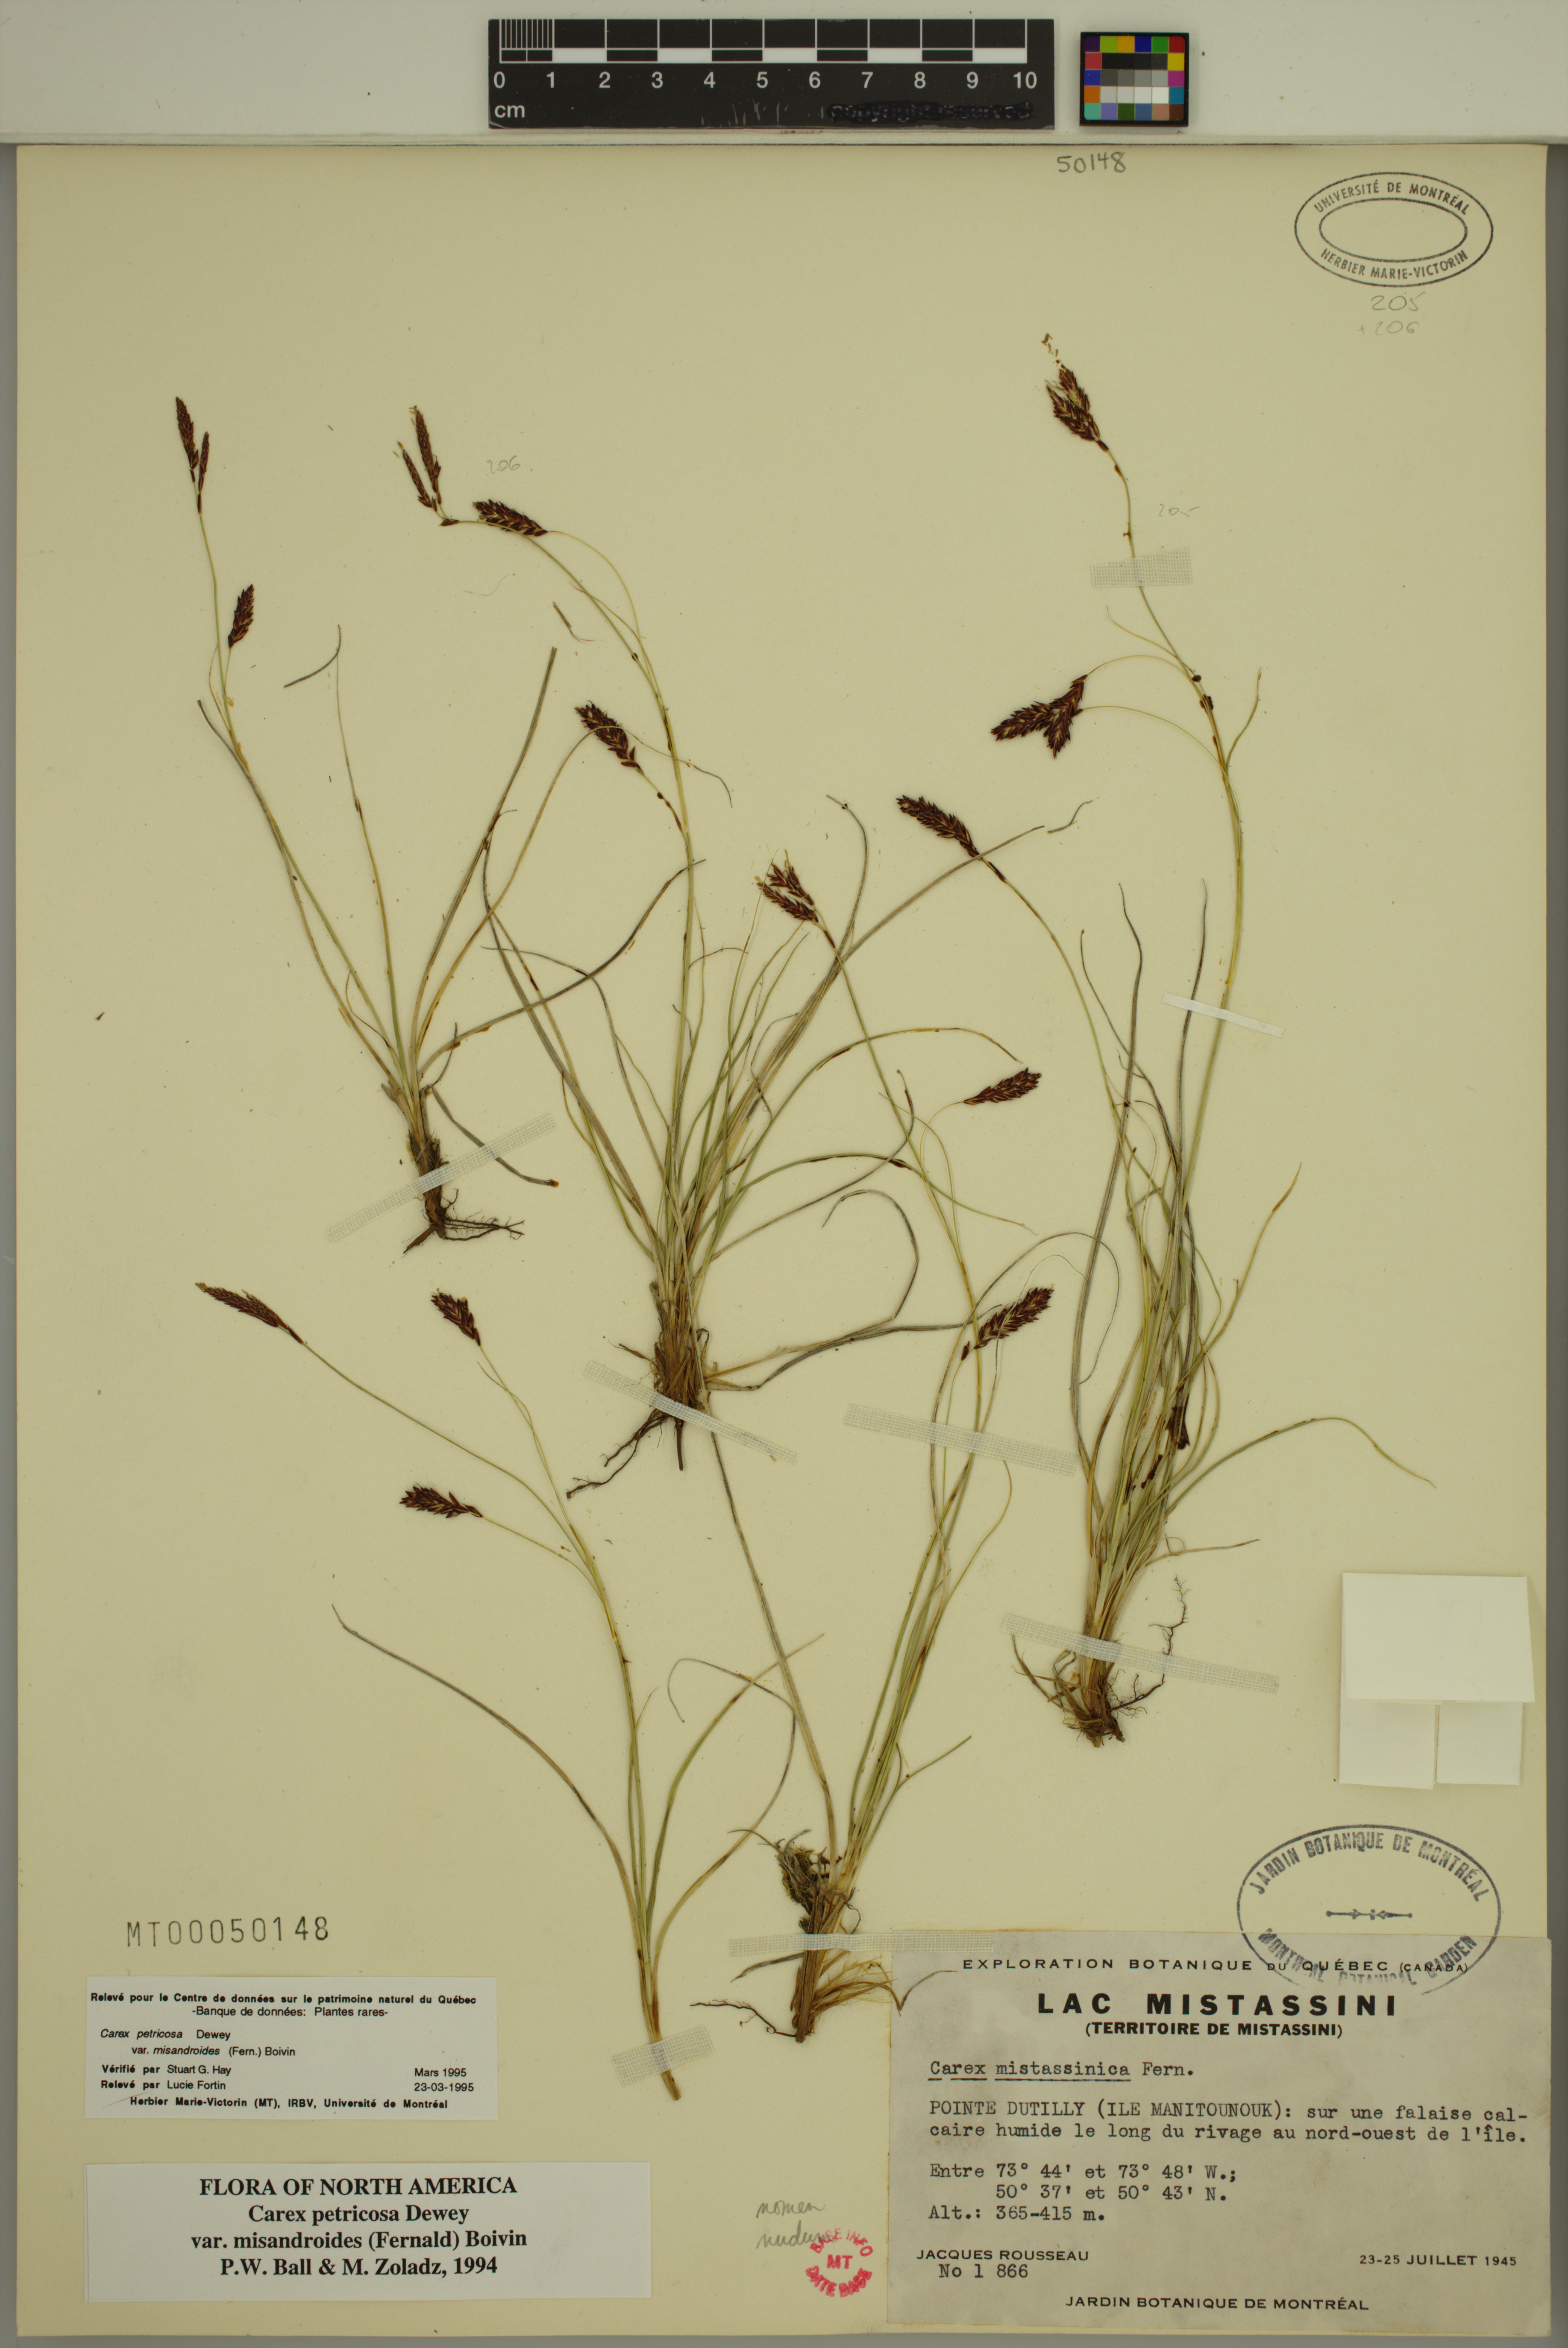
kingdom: Plantae
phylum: Tracheophyta
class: Liliopsida
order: Poales
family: Cyperaceae
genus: Carex
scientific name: Carex petricosa
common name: Rock sedge
